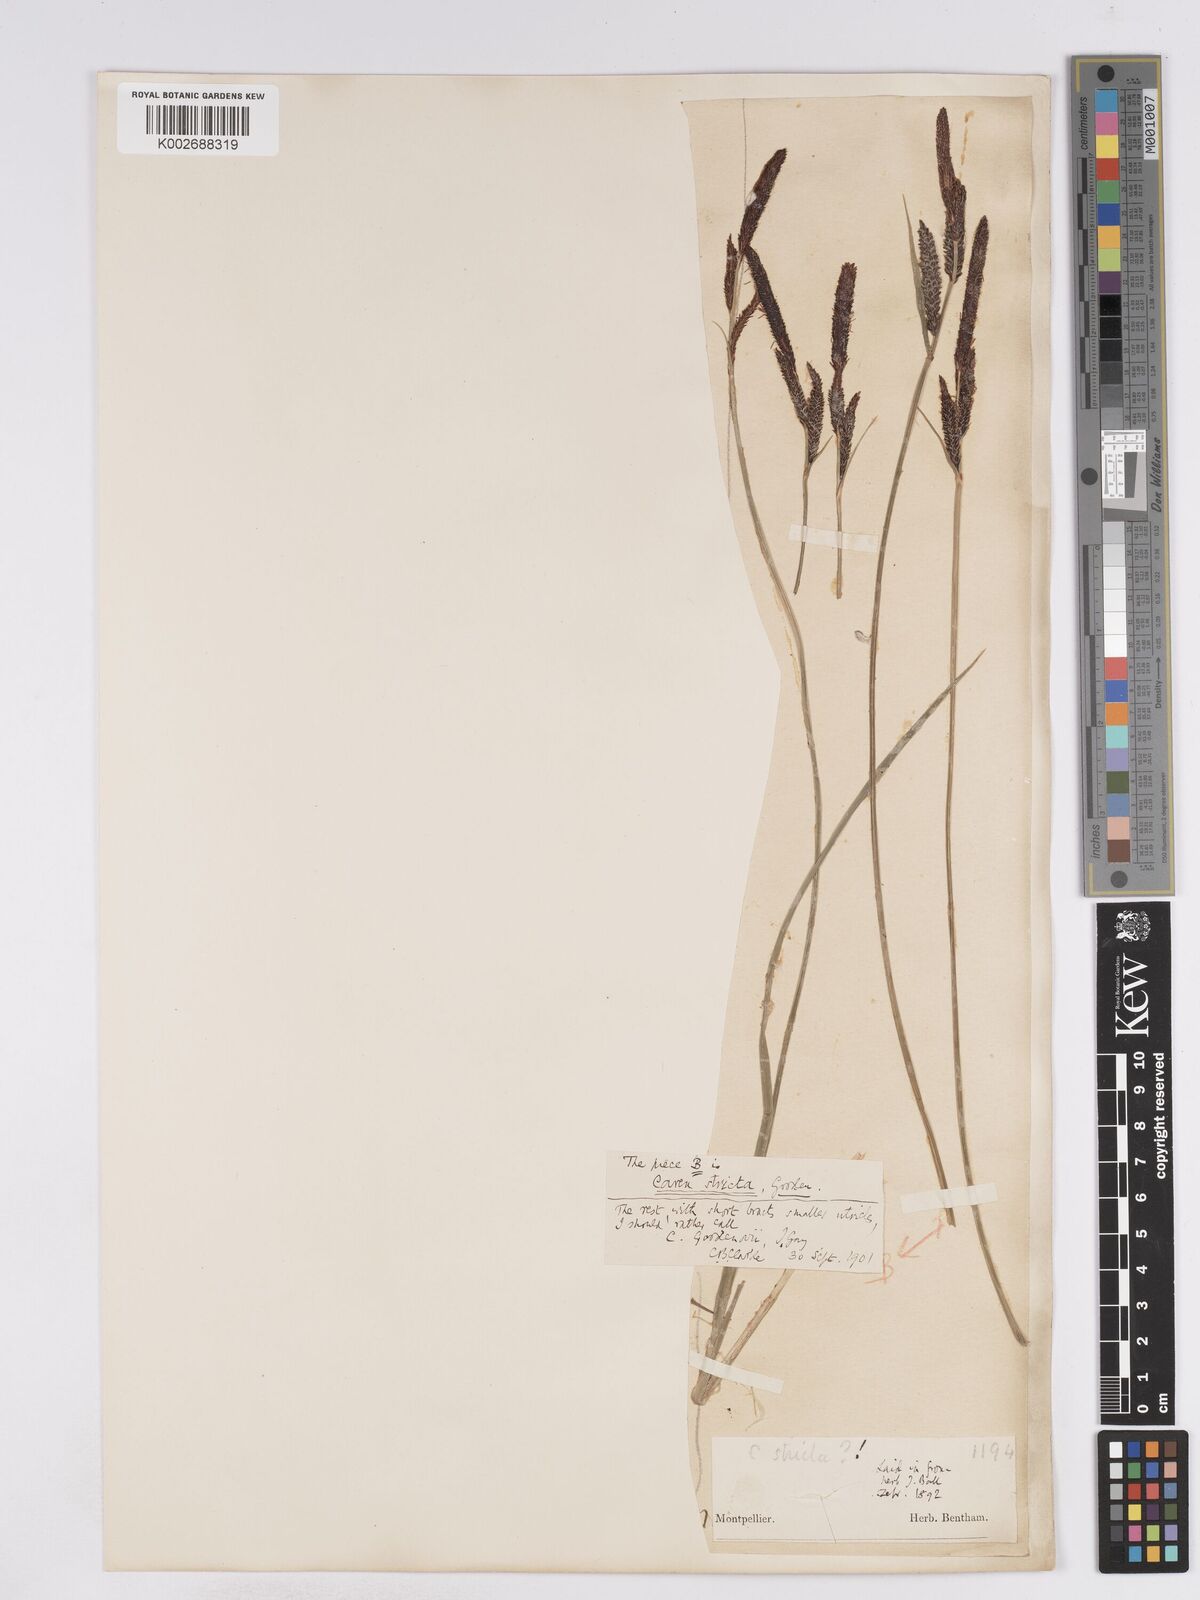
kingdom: Plantae
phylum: Tracheophyta
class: Liliopsida
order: Poales
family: Cyperaceae
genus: Carex
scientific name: Carex elata
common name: Tufted sedge
